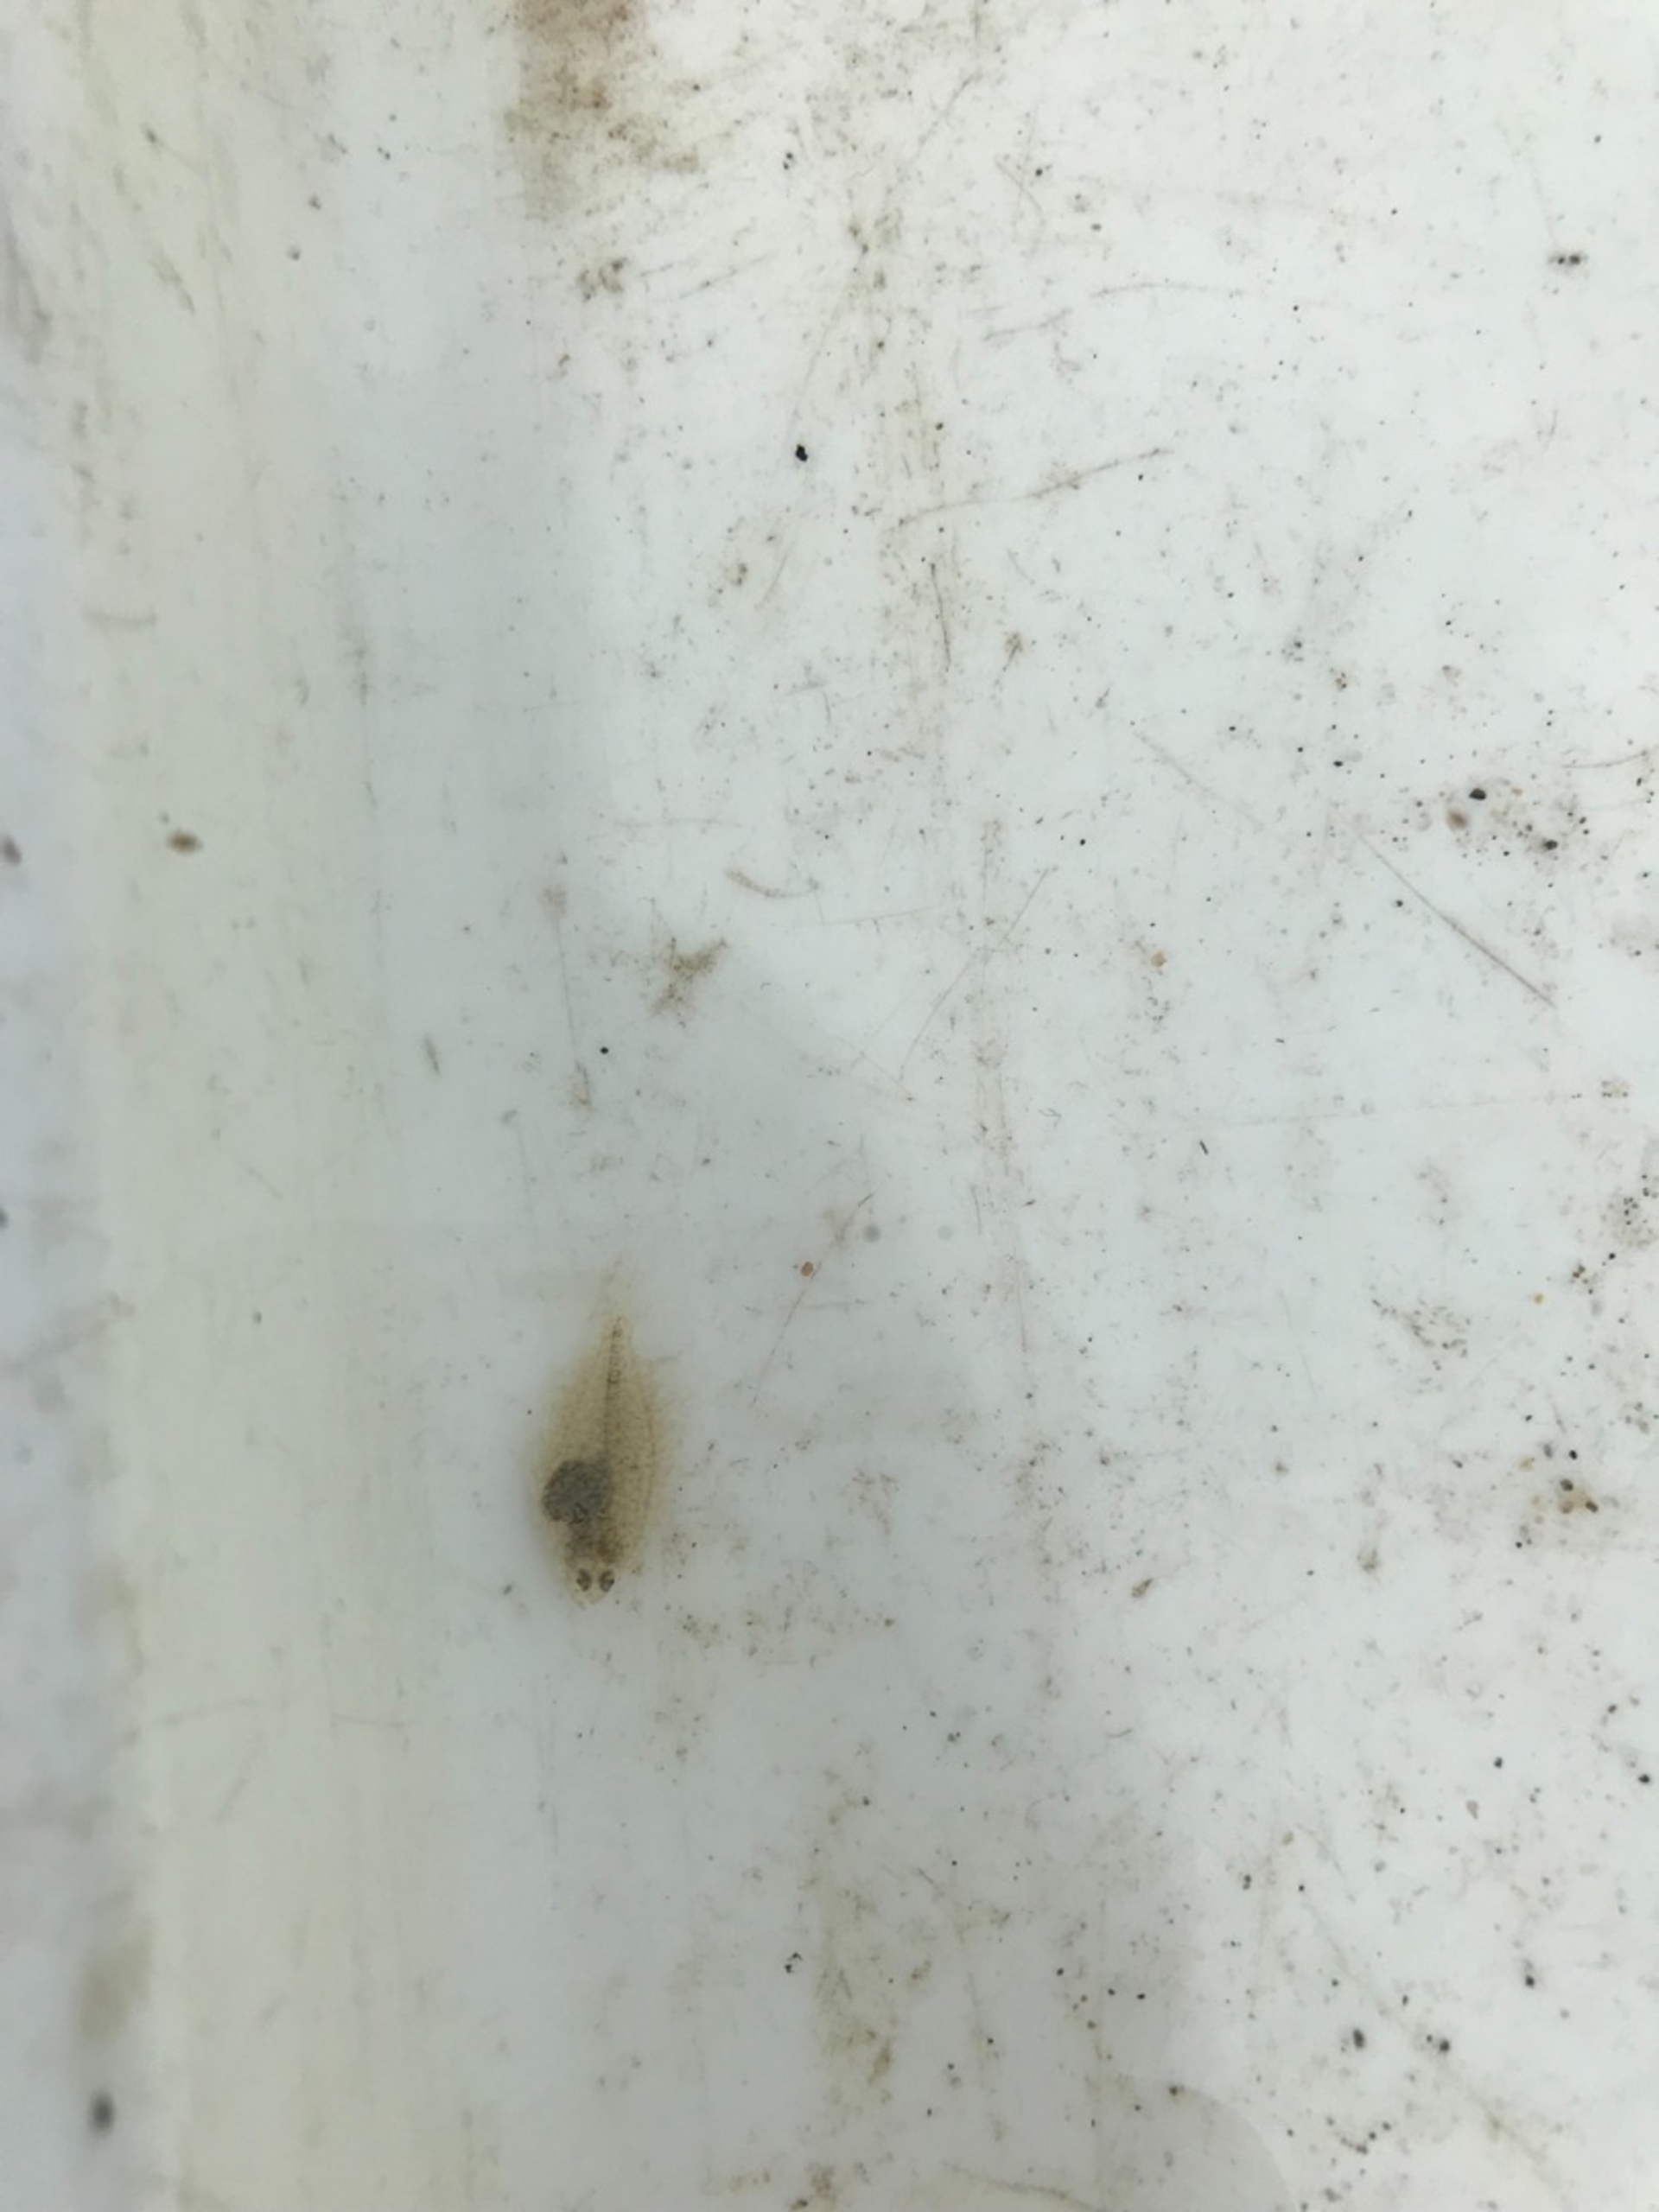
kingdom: Animalia
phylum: Chordata
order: Pleuronectiformes
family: Pleuronectidae
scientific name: Pleuronectidae
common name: Rødspættefamilien
